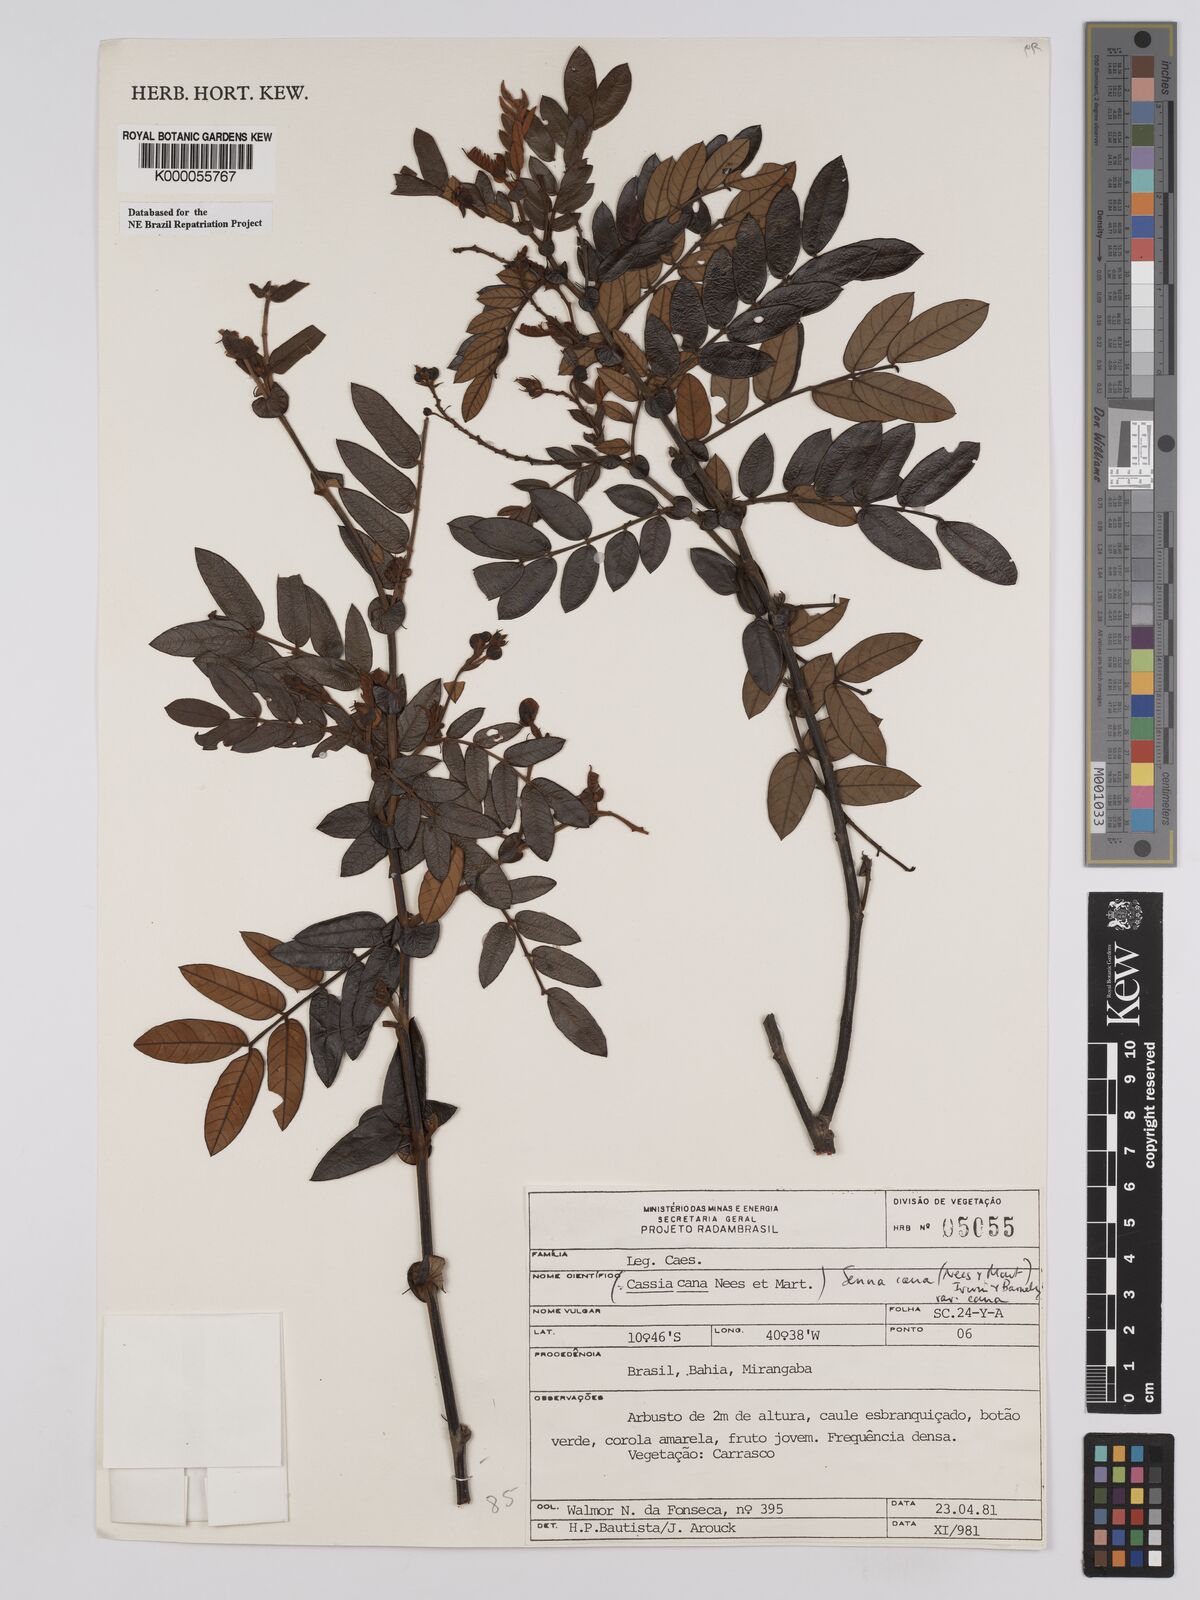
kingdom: Plantae
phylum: Tracheophyta
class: Magnoliopsida
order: Fabales
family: Fabaceae
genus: Senna
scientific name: Senna cana
